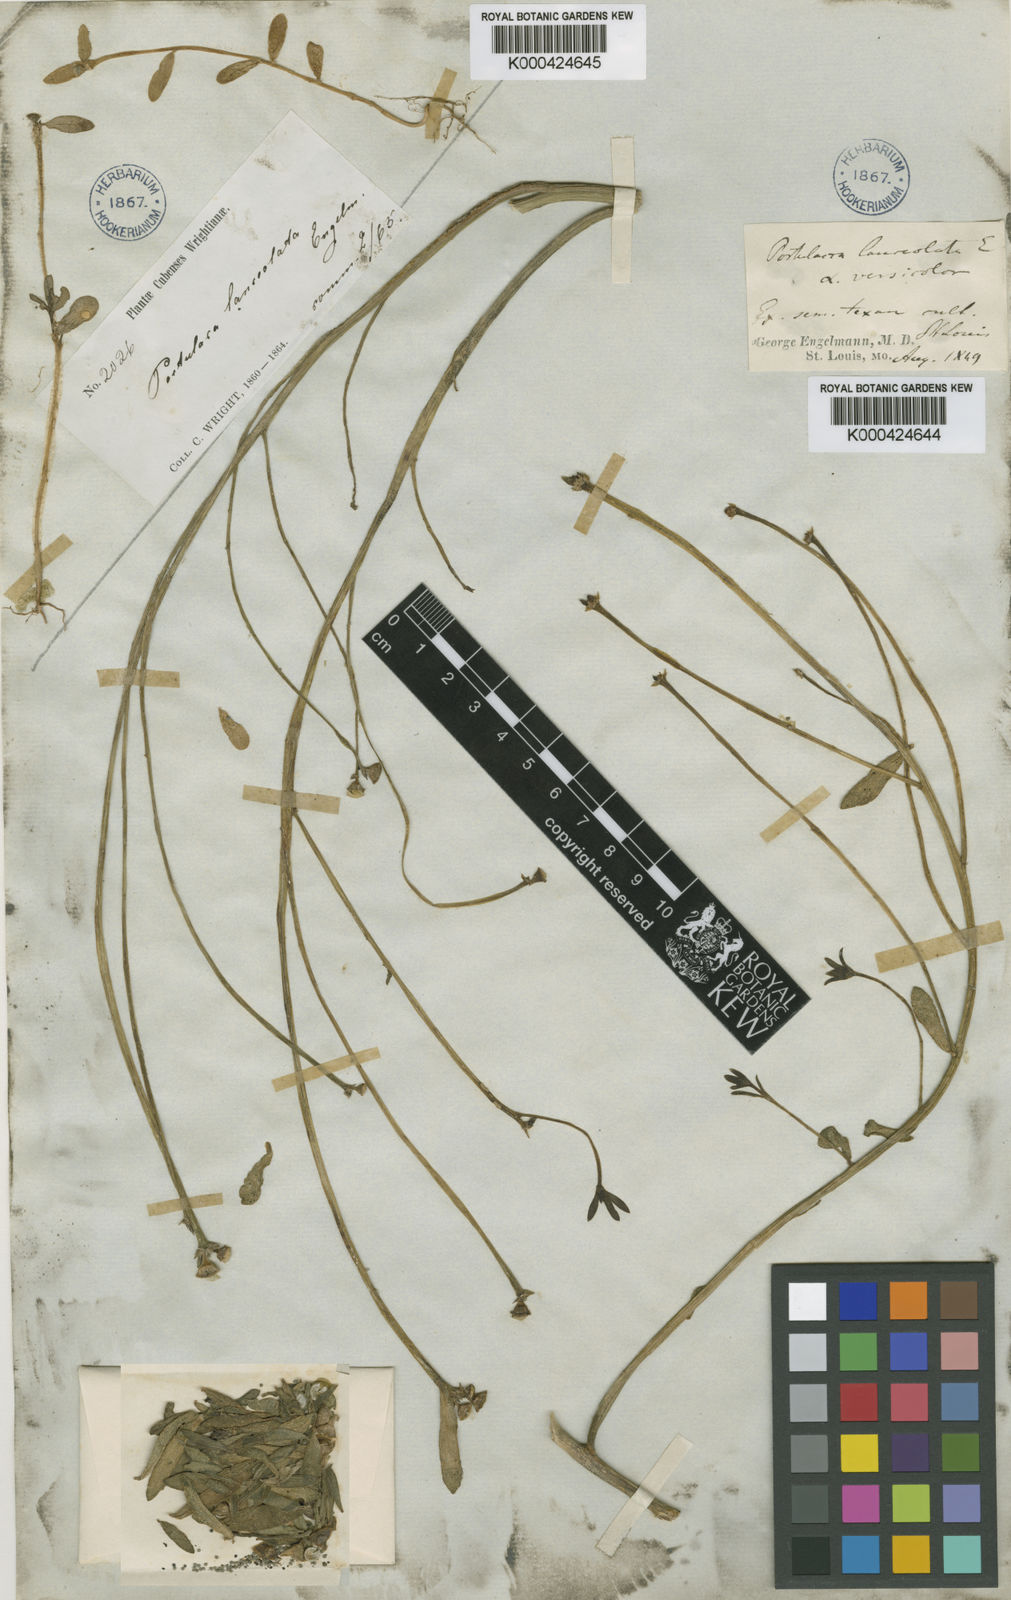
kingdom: Plantae
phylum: Tracheophyta
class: Magnoliopsida
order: Caryophyllales
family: Portulacaceae
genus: Portulaca
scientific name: Portulaca umbraticola
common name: Wingpod purslane
